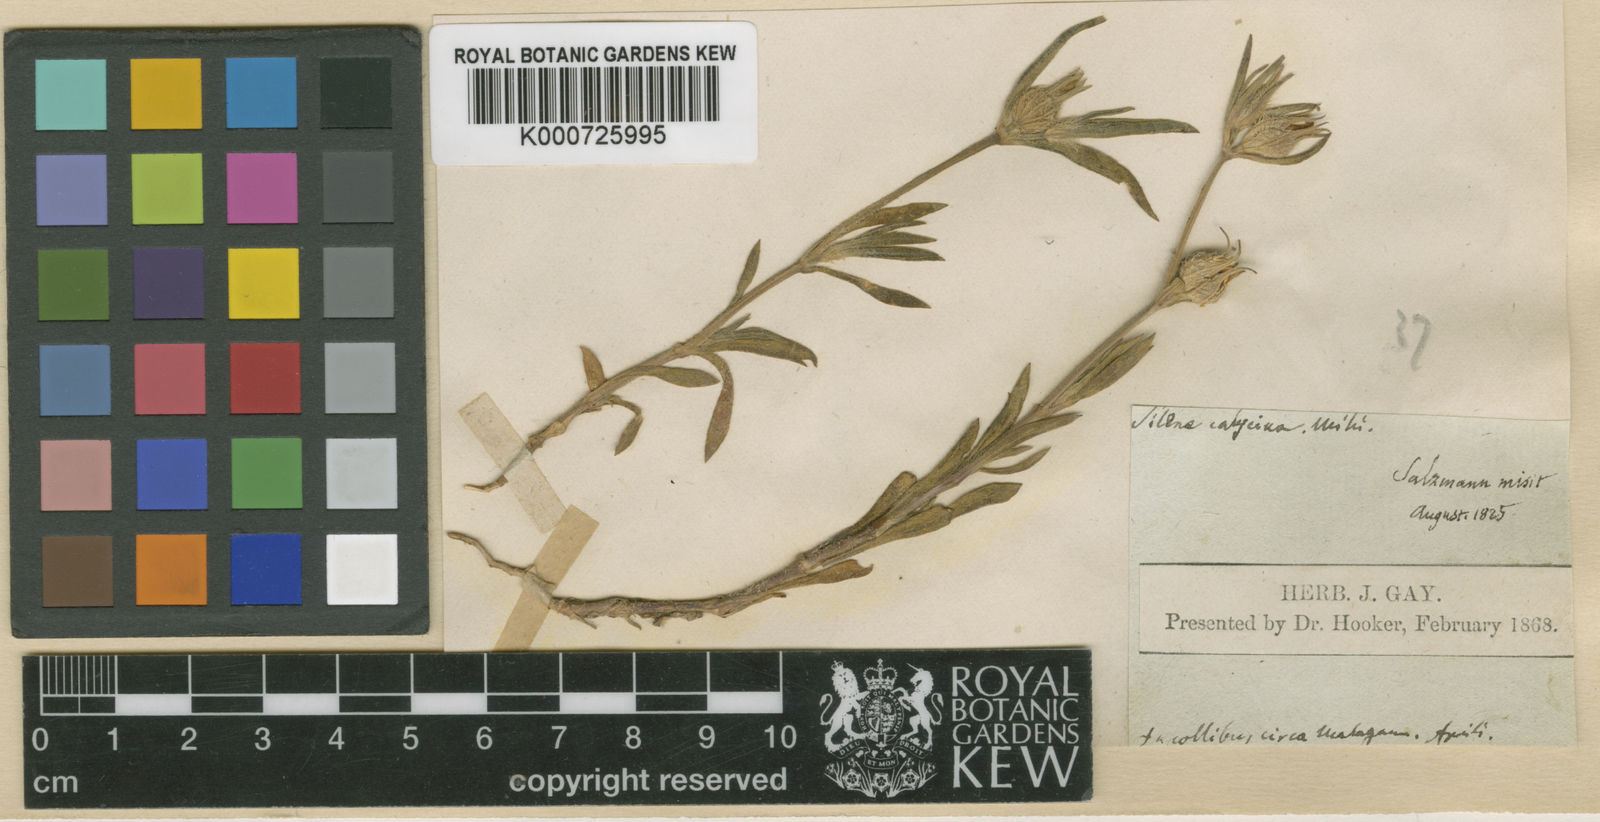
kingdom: Plantae
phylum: Tracheophyta
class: Magnoliopsida
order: Caryophyllales
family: Caryophyllaceae
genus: Silene
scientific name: Silene tridentata
